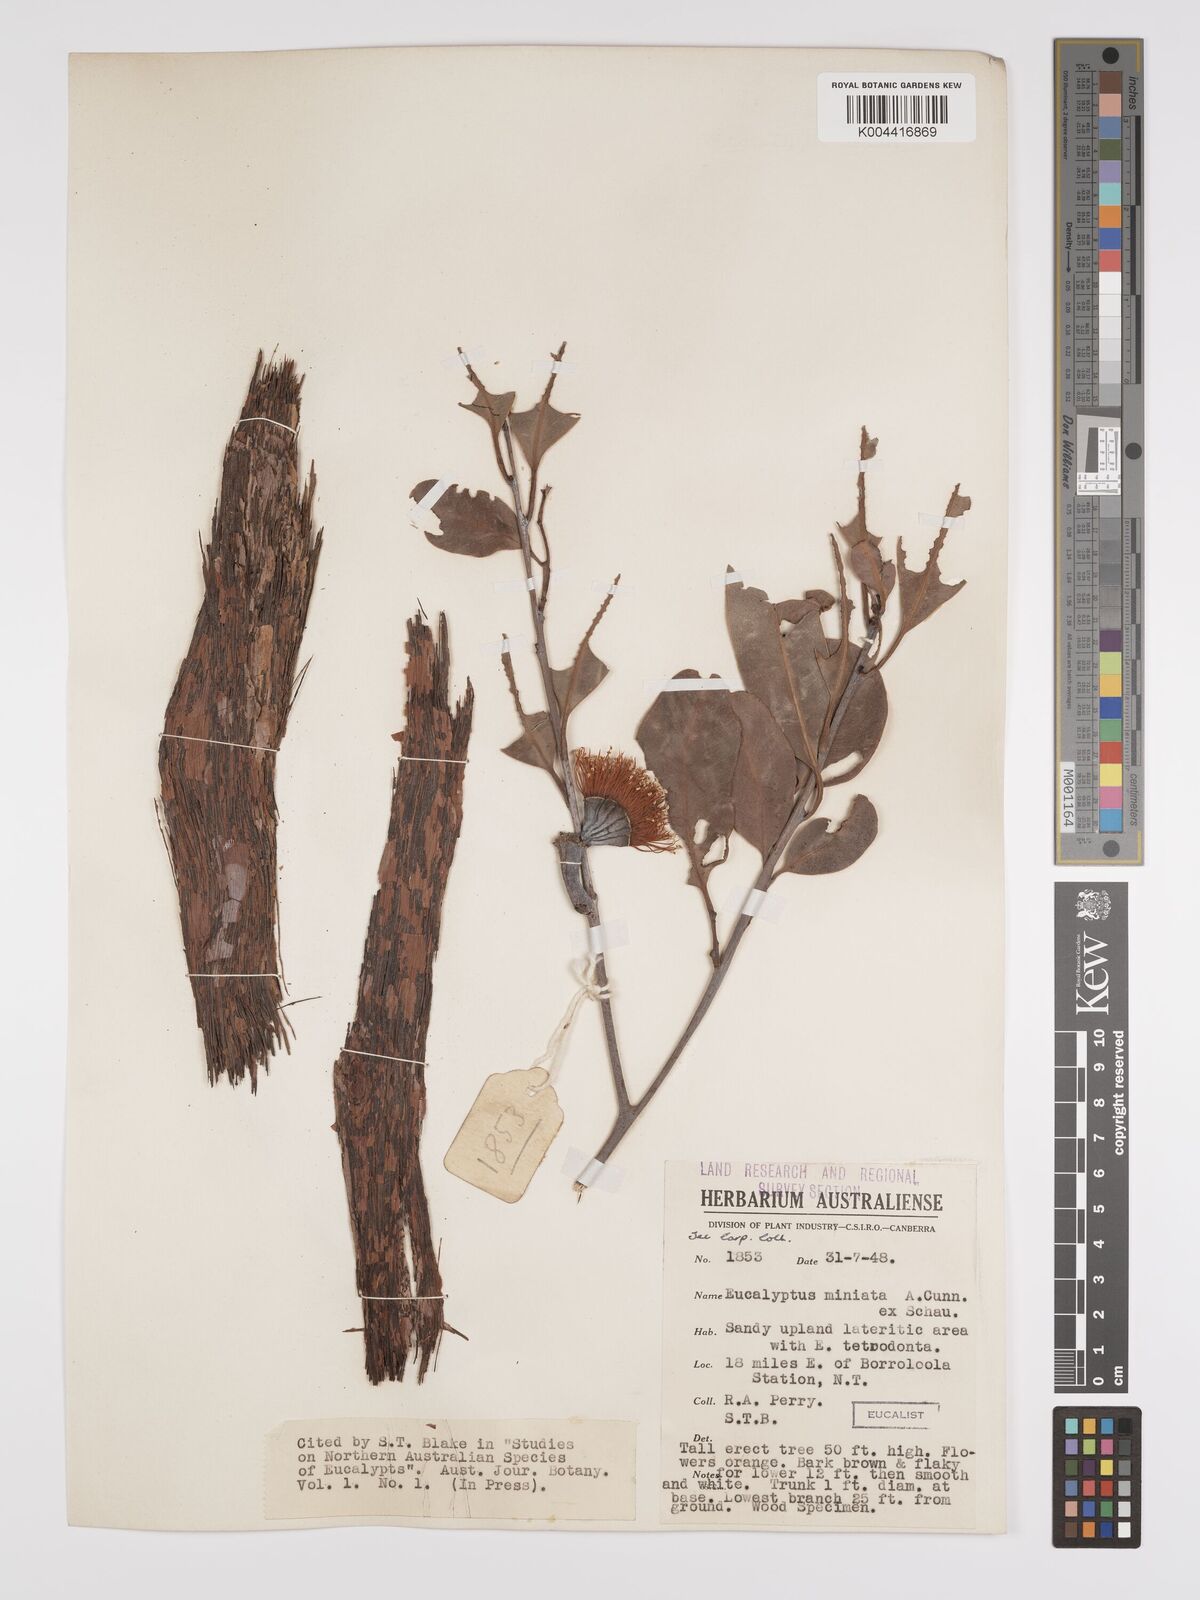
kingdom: Plantae
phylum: Tracheophyta
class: Magnoliopsida
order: Myrtales
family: Myrtaceae
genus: Eucalyptus
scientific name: Eucalyptus miniata
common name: Darwin-woollybutt
